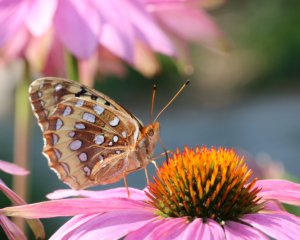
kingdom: Animalia
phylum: Arthropoda
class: Insecta
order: Lepidoptera
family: Nymphalidae
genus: Speyeria
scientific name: Speyeria cybele
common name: Great Spangled Fritillary
